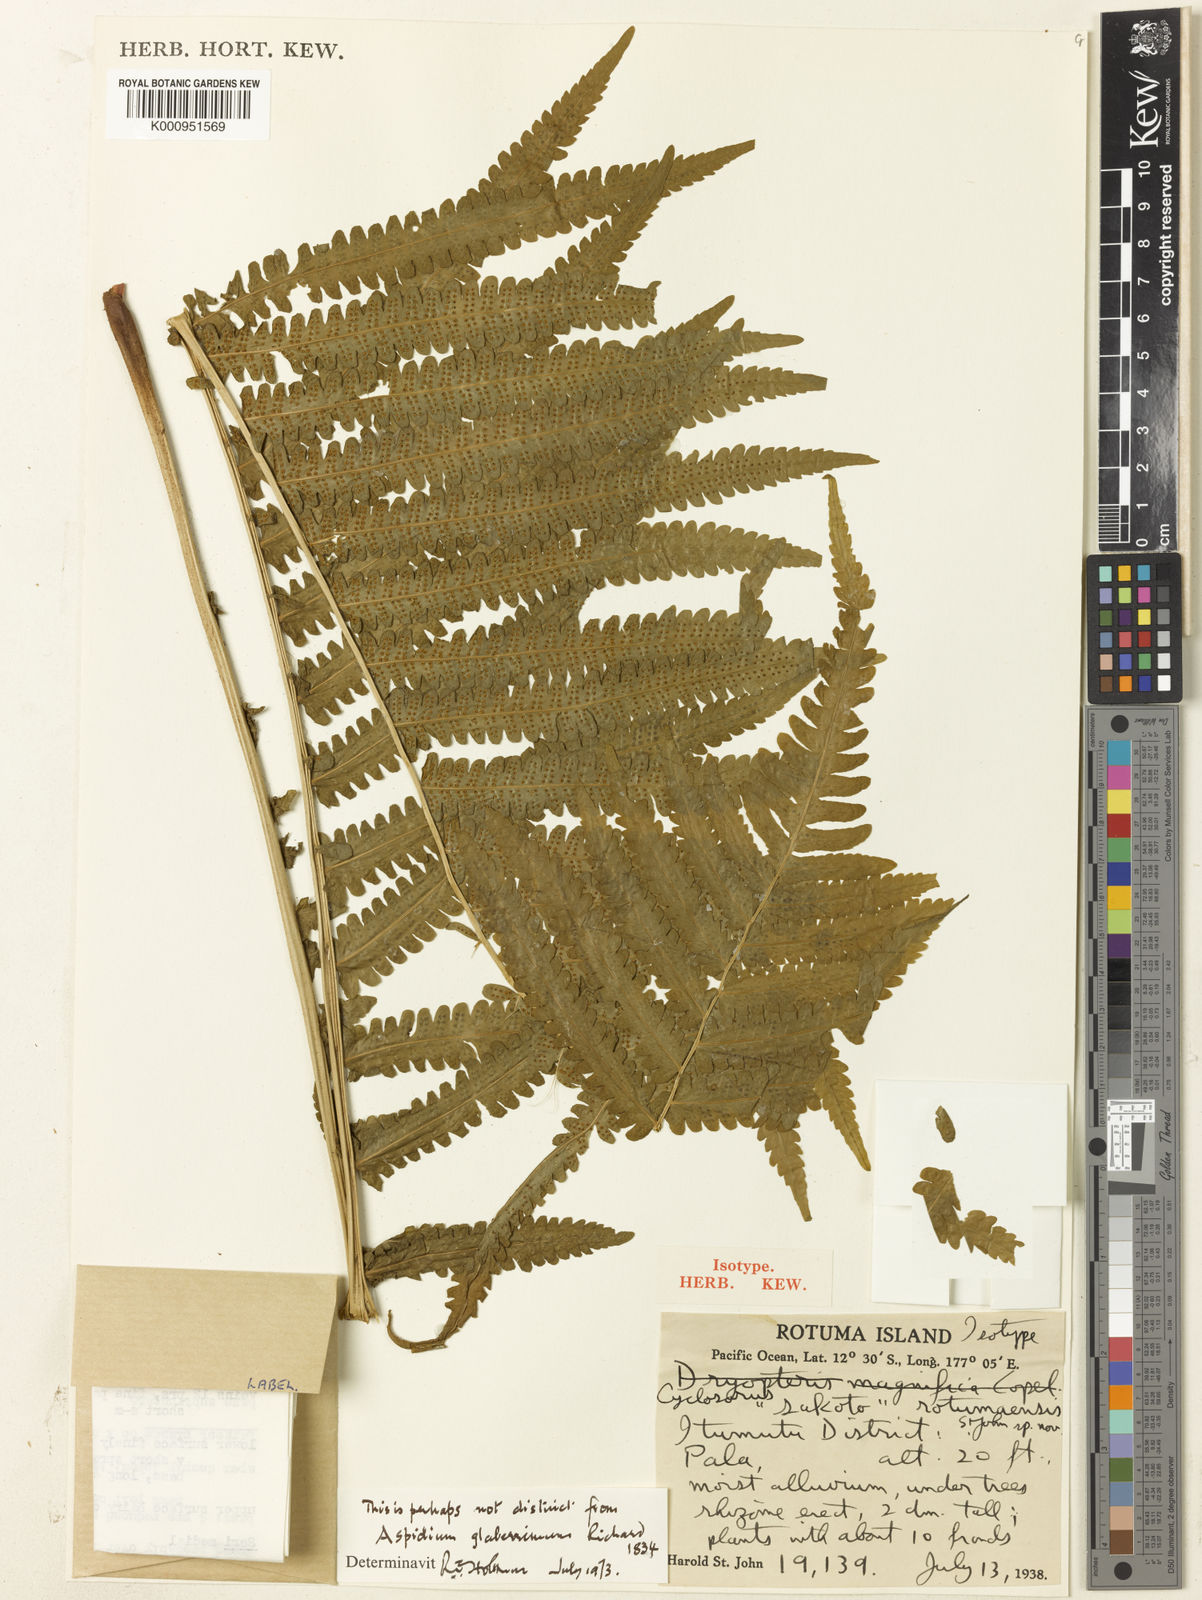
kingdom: Plantae
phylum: Tracheophyta
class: Polypodiopsida
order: Polypodiales
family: Thelypteridaceae
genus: Reholttumia
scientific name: Reholttumia rodigasiana
